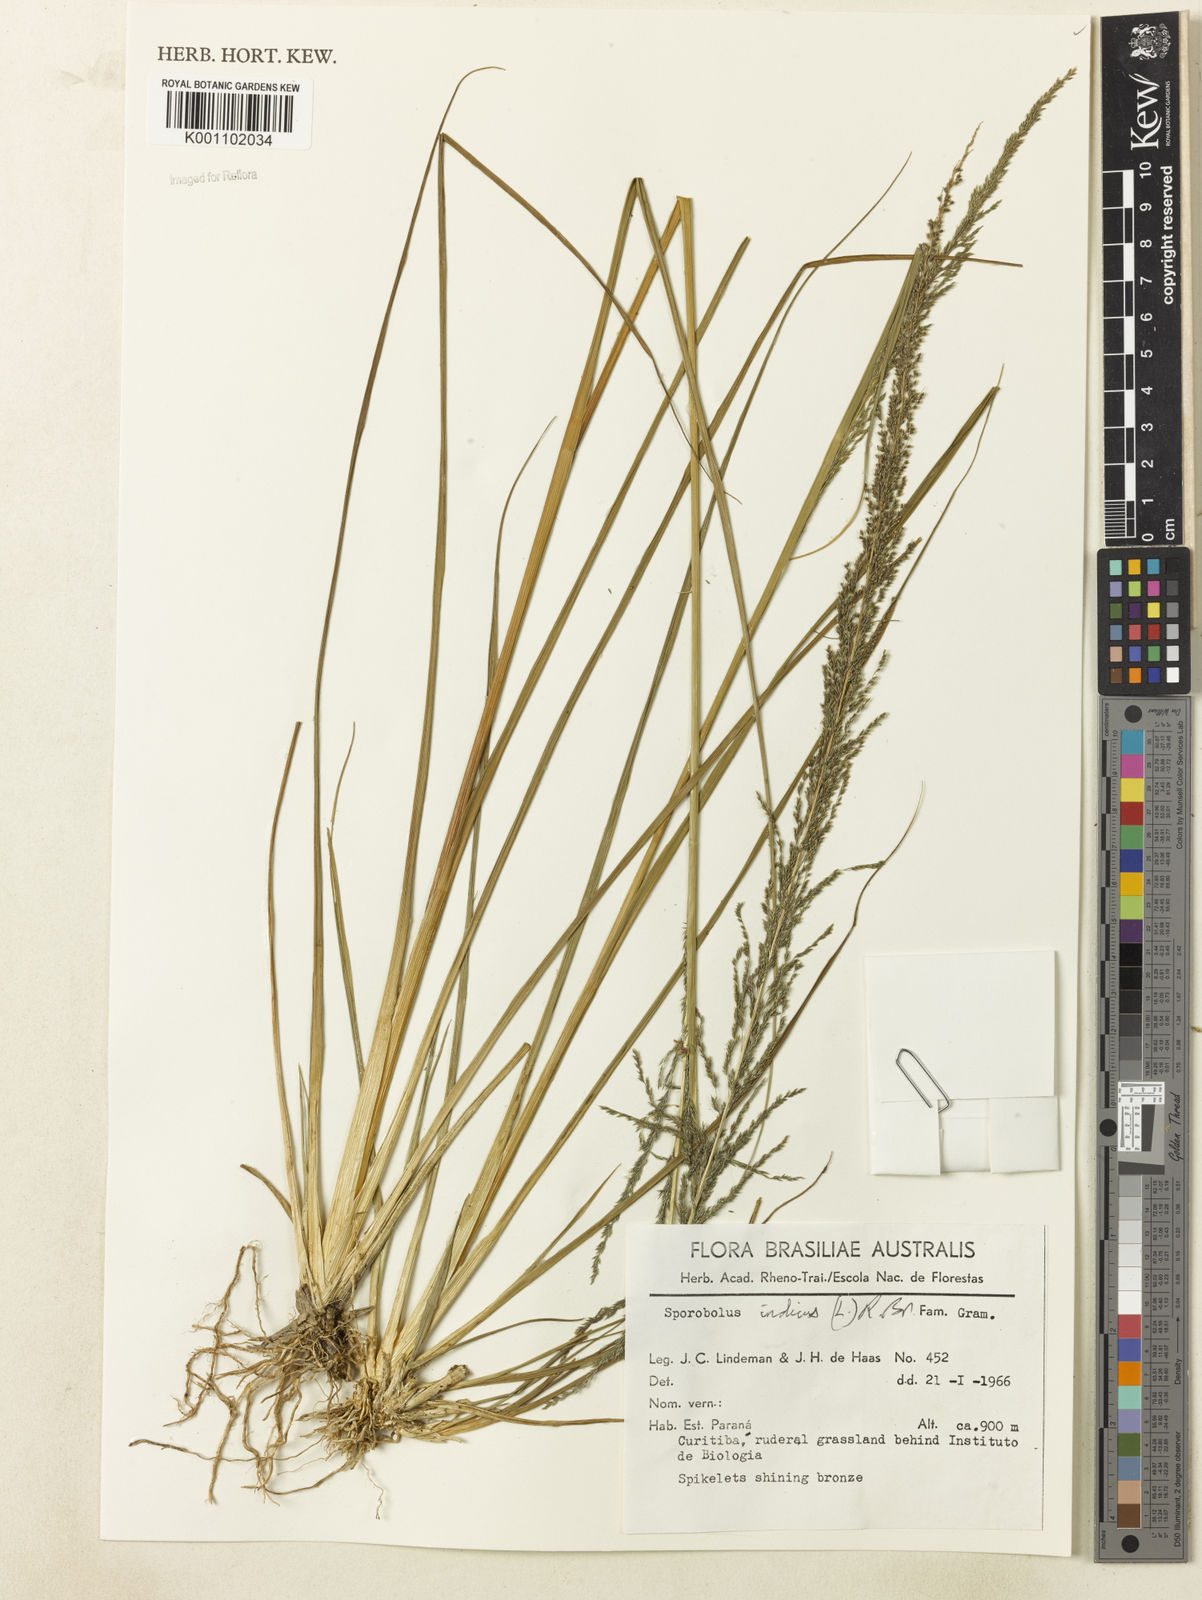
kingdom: Plantae
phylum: Tracheophyta
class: Liliopsida
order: Poales
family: Poaceae
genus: Sporobolus
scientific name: Sporobolus indicus
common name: Smut grass
